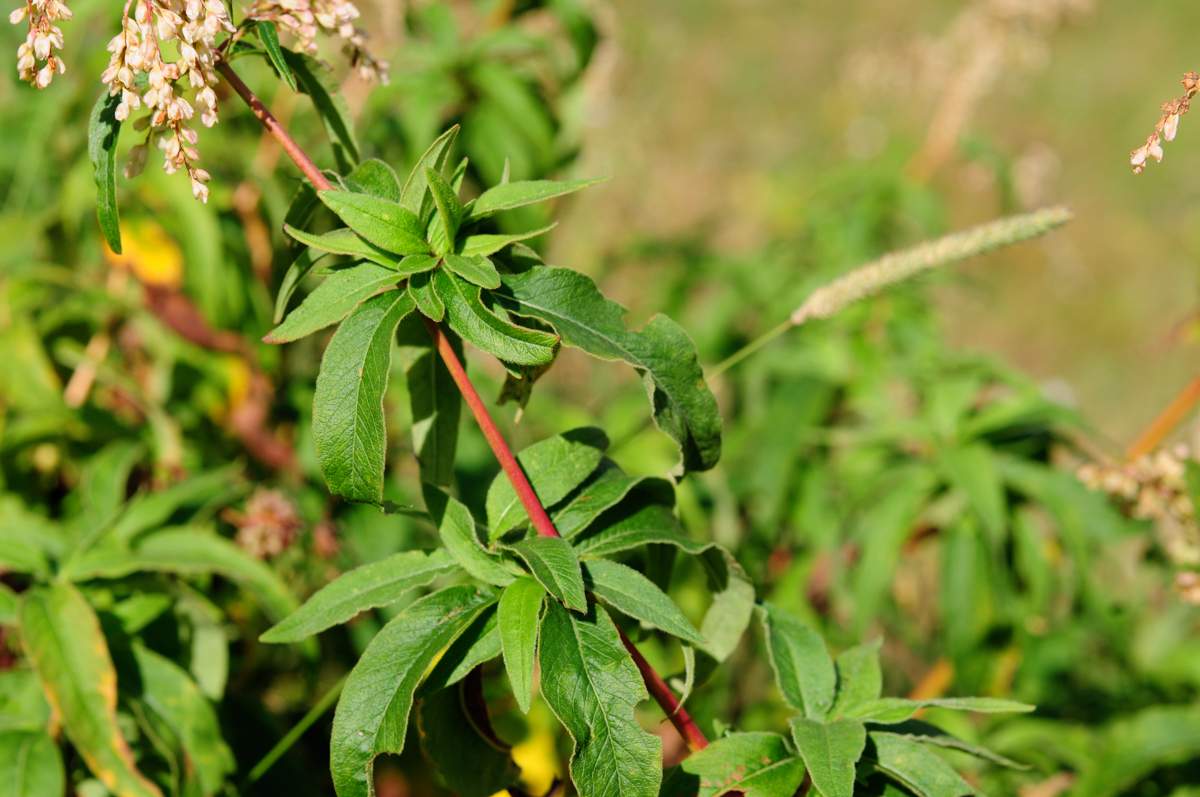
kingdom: Plantae
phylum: Tracheophyta
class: Magnoliopsida
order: Caryophyllales
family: Polygonaceae
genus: Polygonum
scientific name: Polygonum cognatum
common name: Indian knotgrass
